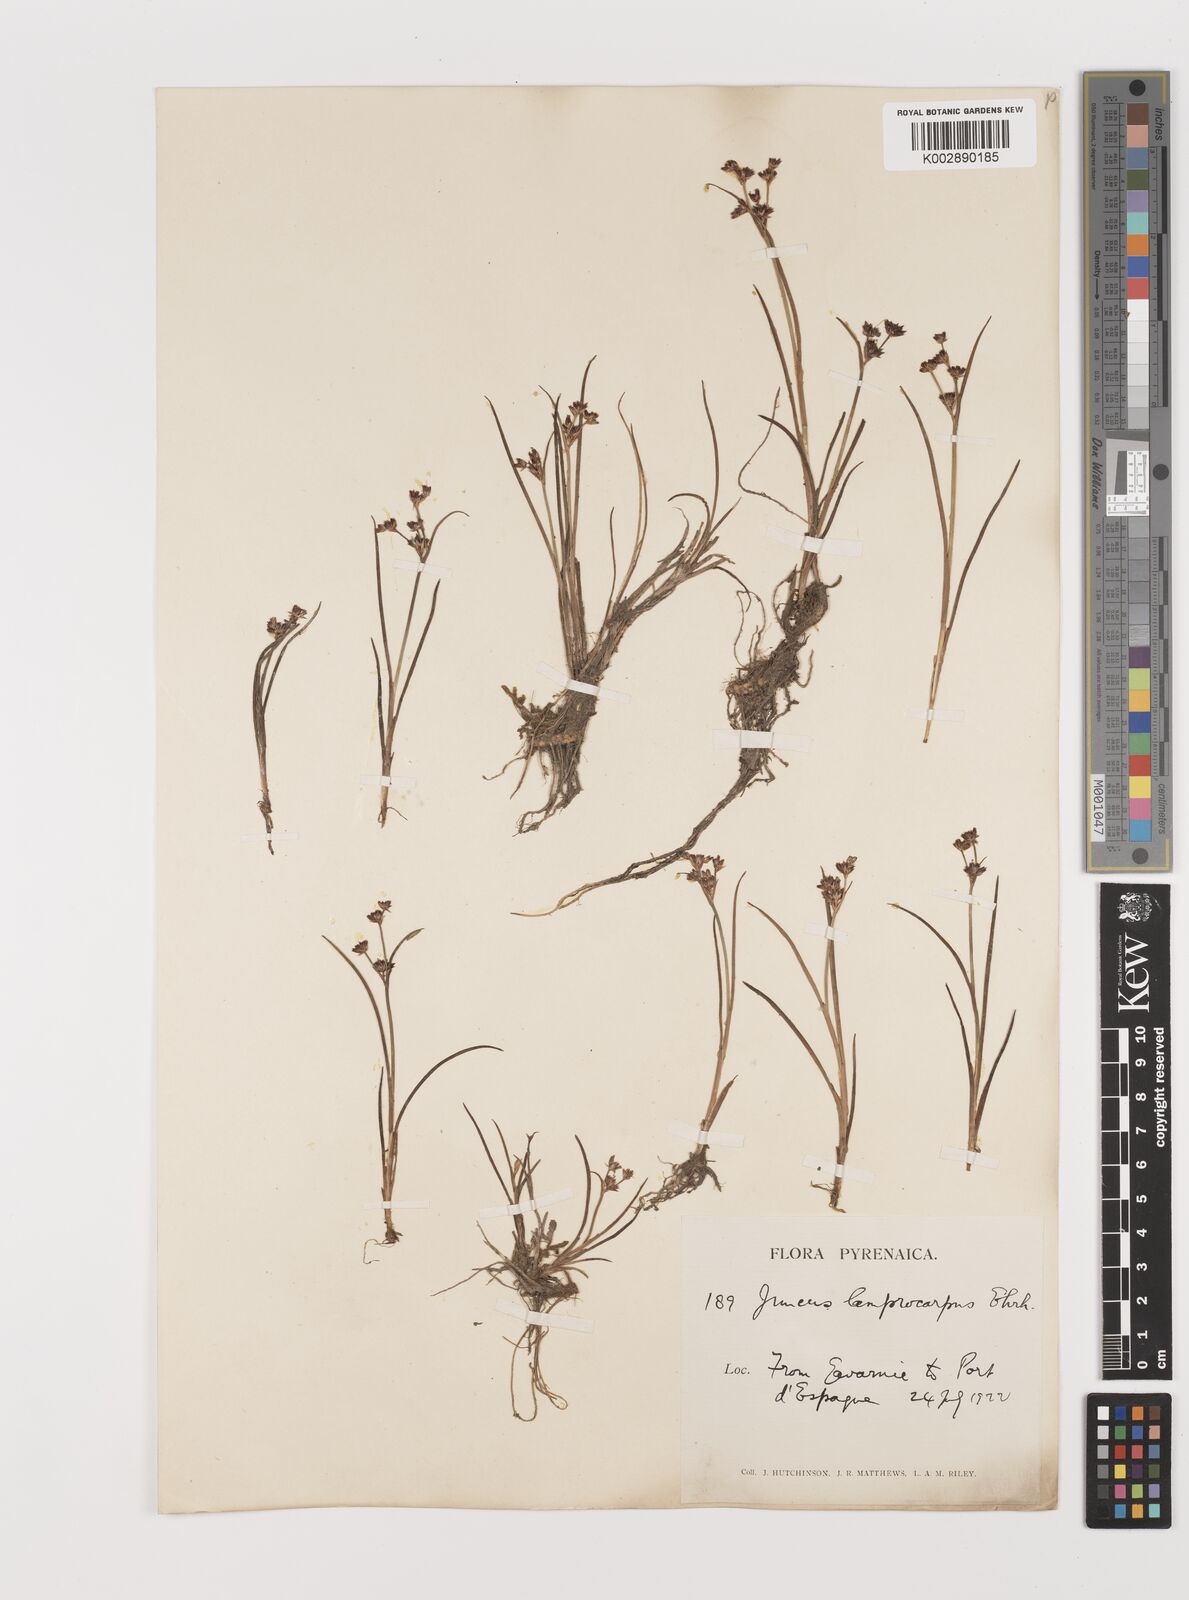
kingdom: Plantae
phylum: Tracheophyta
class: Liliopsida
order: Poales
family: Juncaceae
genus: Juncus
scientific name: Juncus articulatus
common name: Jointed rush
